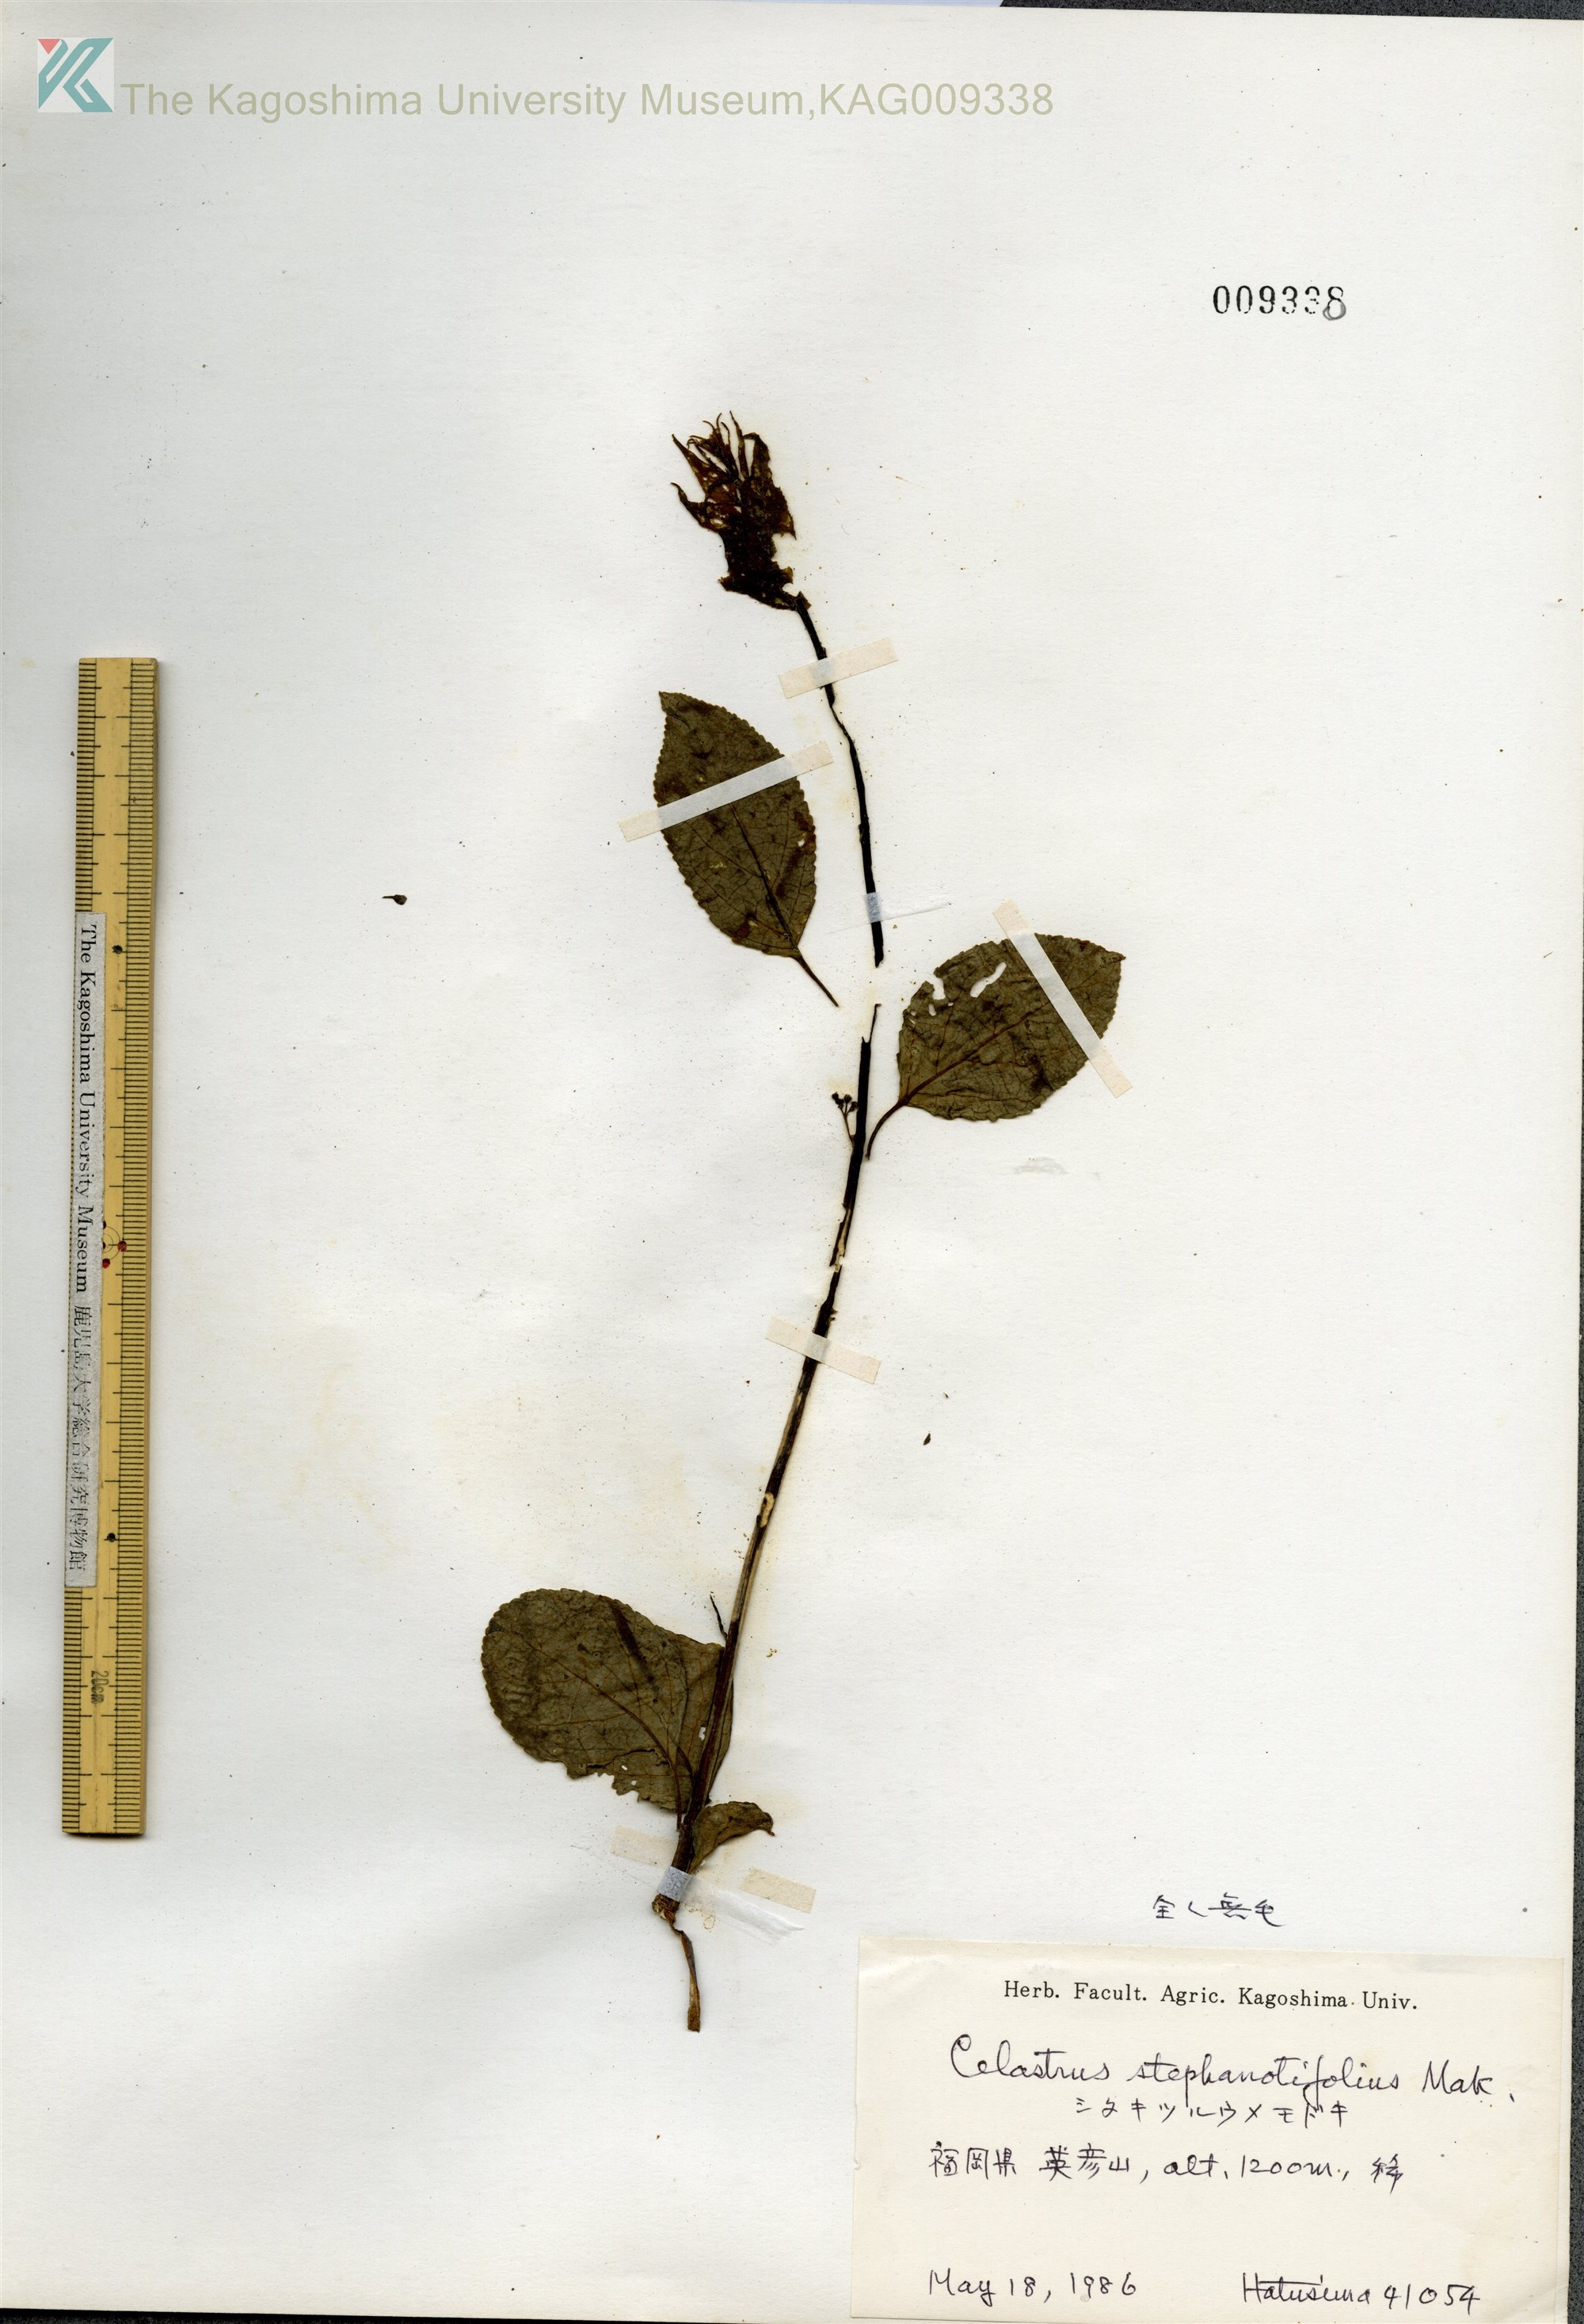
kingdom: Plantae
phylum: Tracheophyta
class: Magnoliopsida
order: Celastrales
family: Celastraceae
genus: Celastrus
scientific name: Celastrus stephanotifolius
